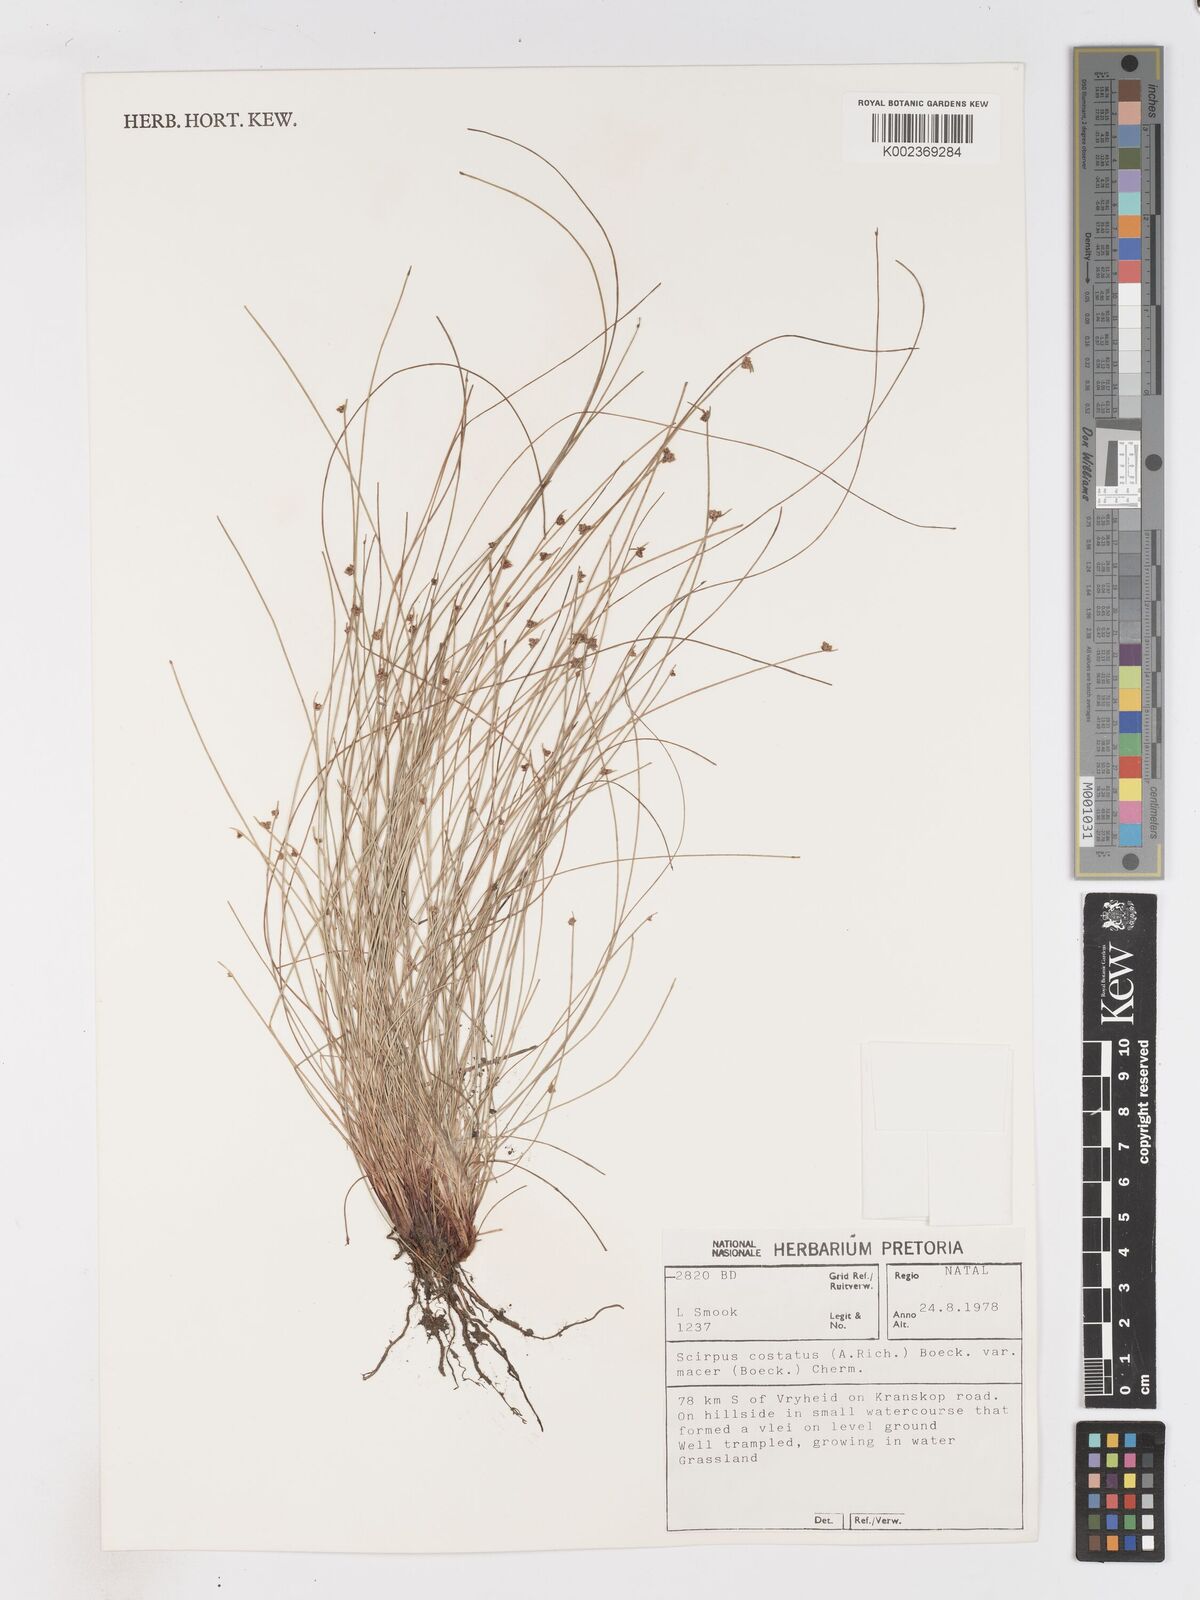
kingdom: Plantae
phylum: Tracheophyta
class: Liliopsida
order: Poales
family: Cyperaceae
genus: Isolepis
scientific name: Isolepis costata
